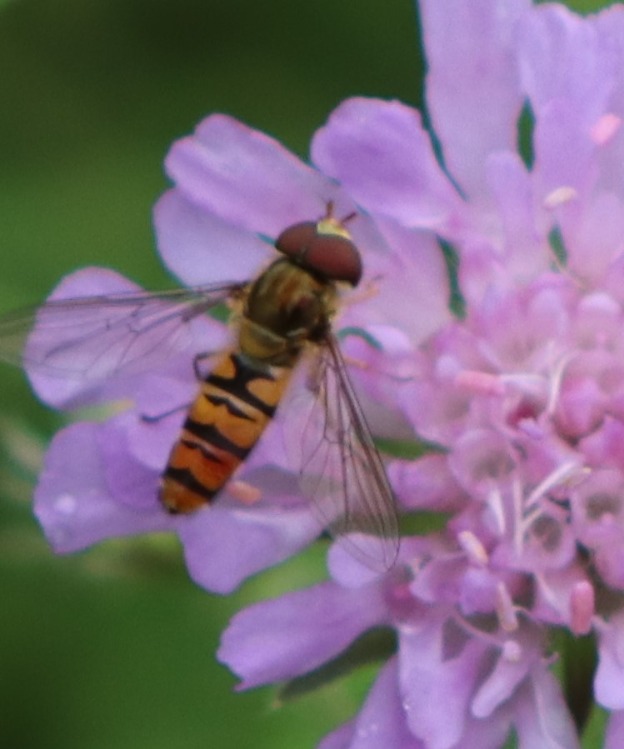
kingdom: Animalia
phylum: Arthropoda
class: Insecta
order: Diptera
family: Syrphidae
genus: Episyrphus
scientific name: Episyrphus balteatus
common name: Dobbeltbåndet svirreflue
